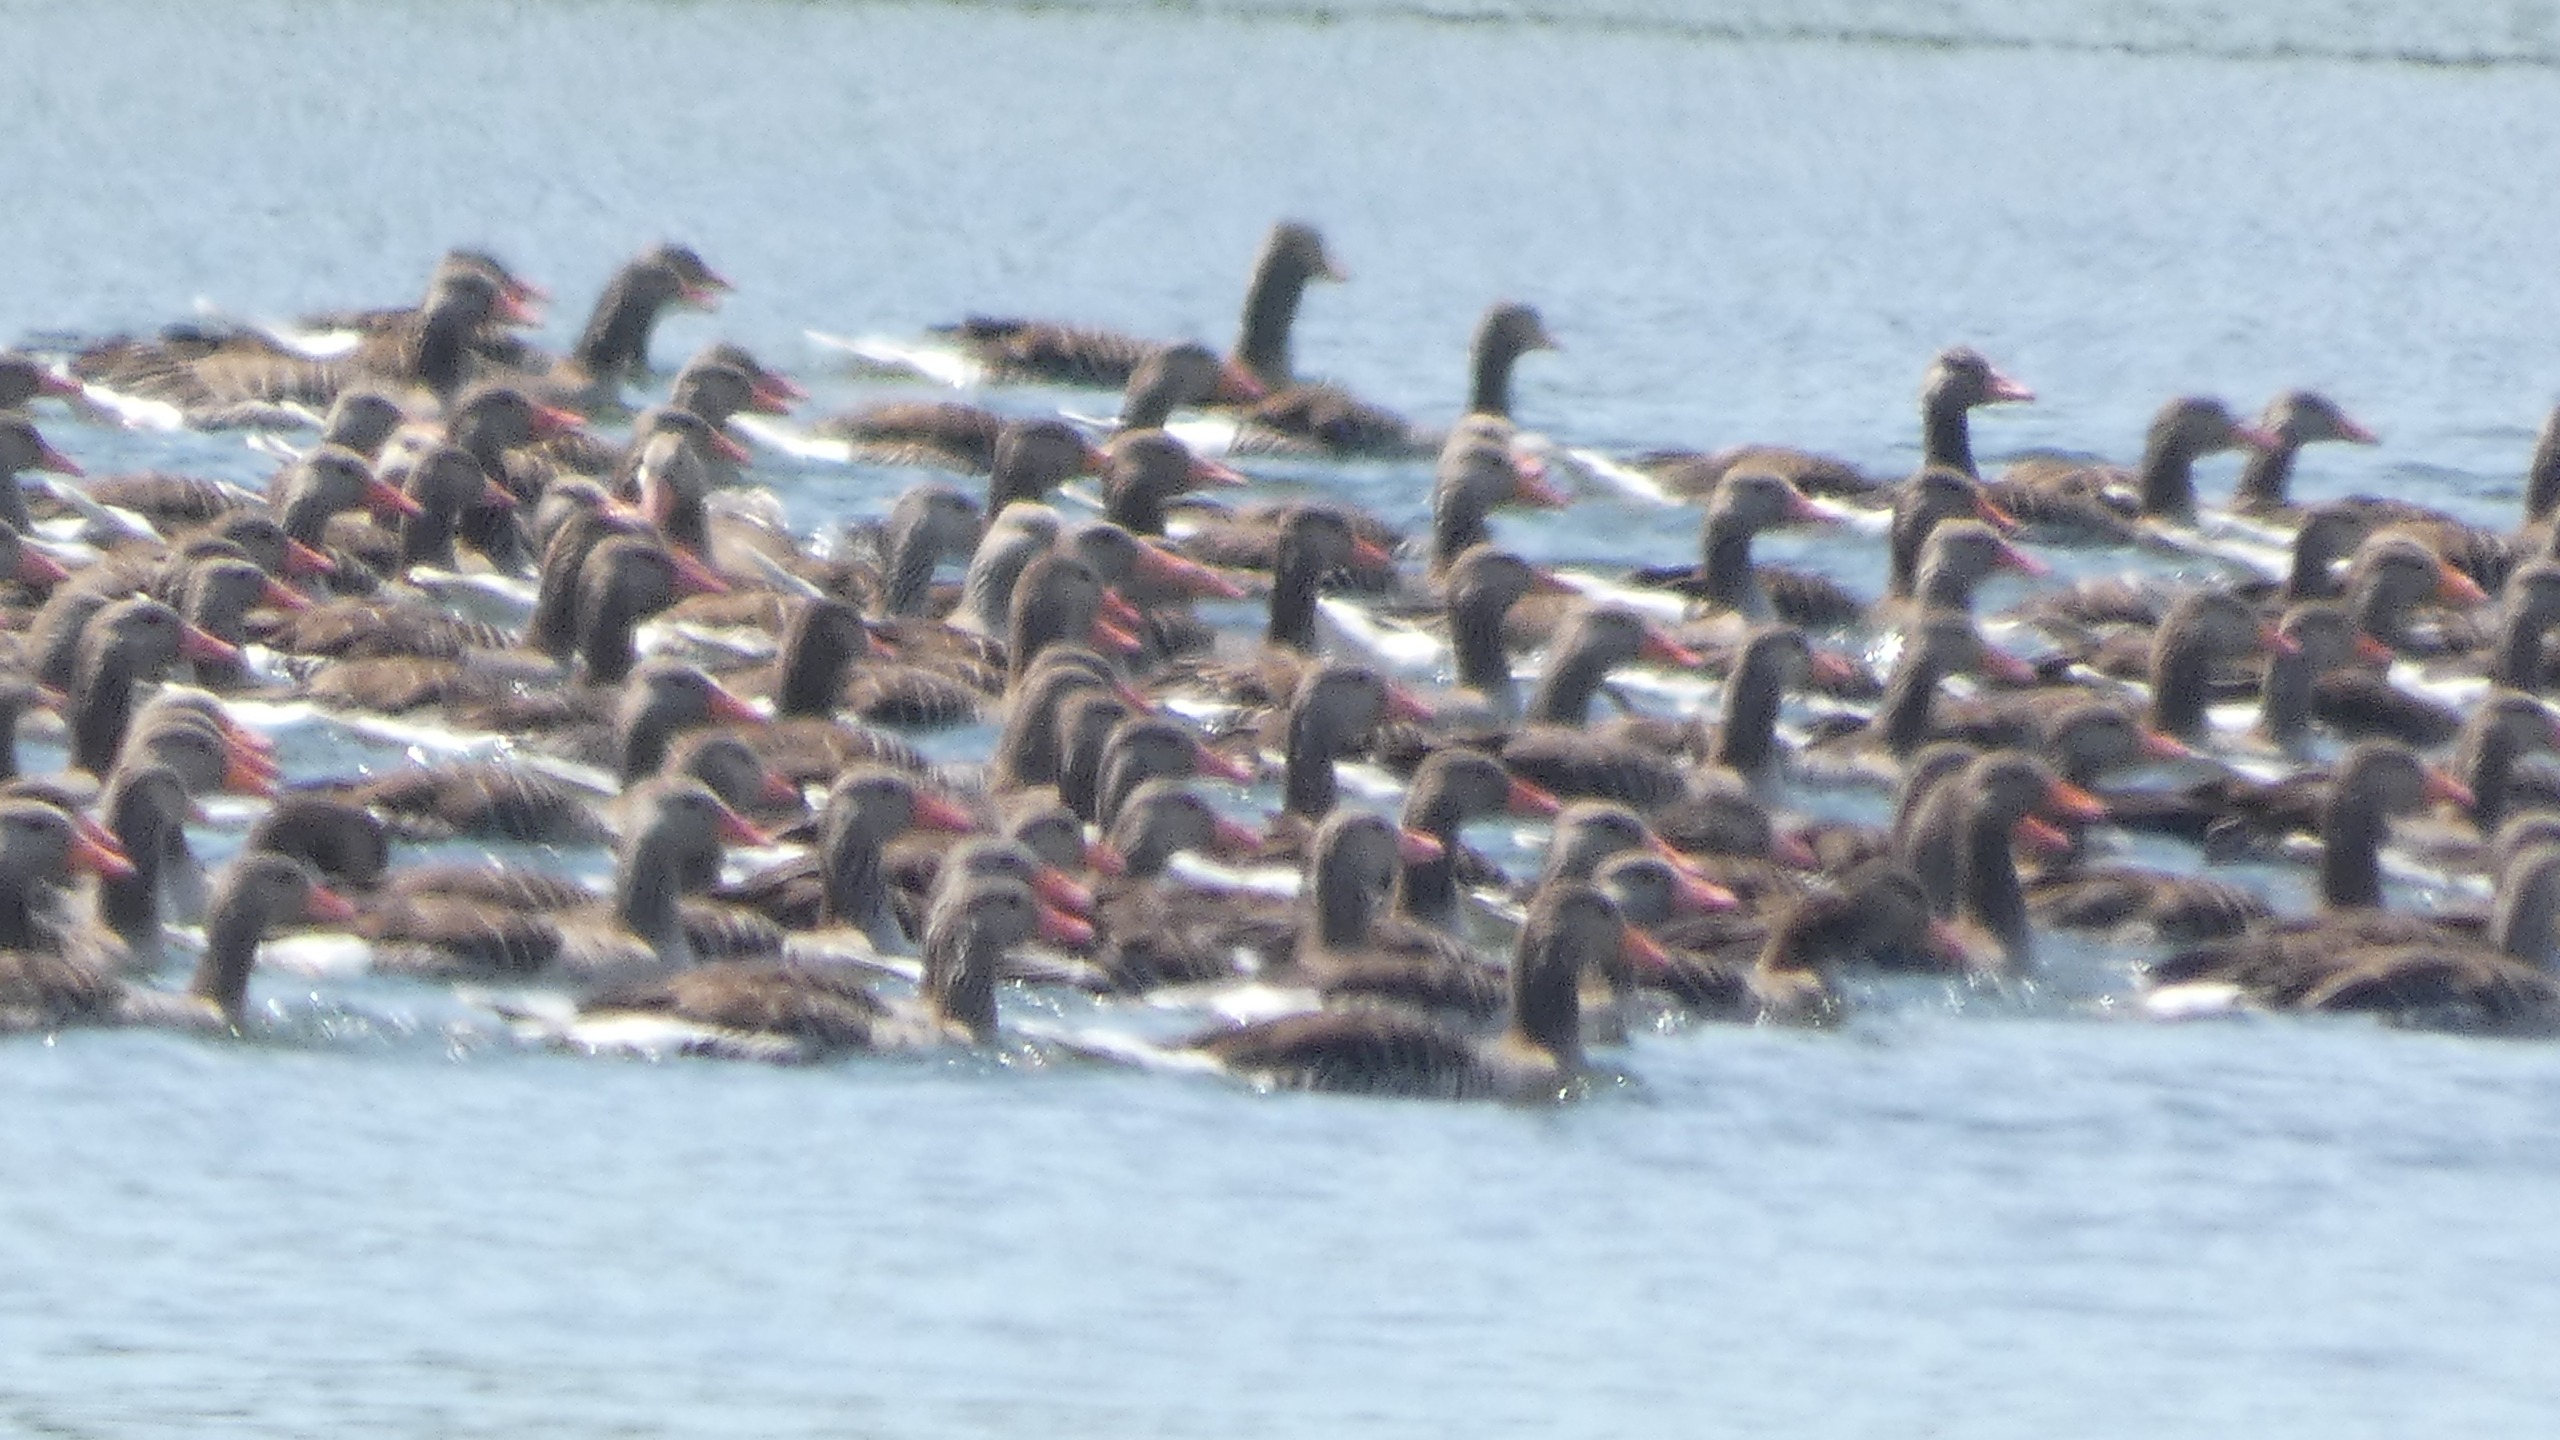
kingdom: Animalia
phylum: Chordata
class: Aves
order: Anseriformes
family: Anatidae
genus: Anser
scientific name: Anser anser
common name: Grågås
